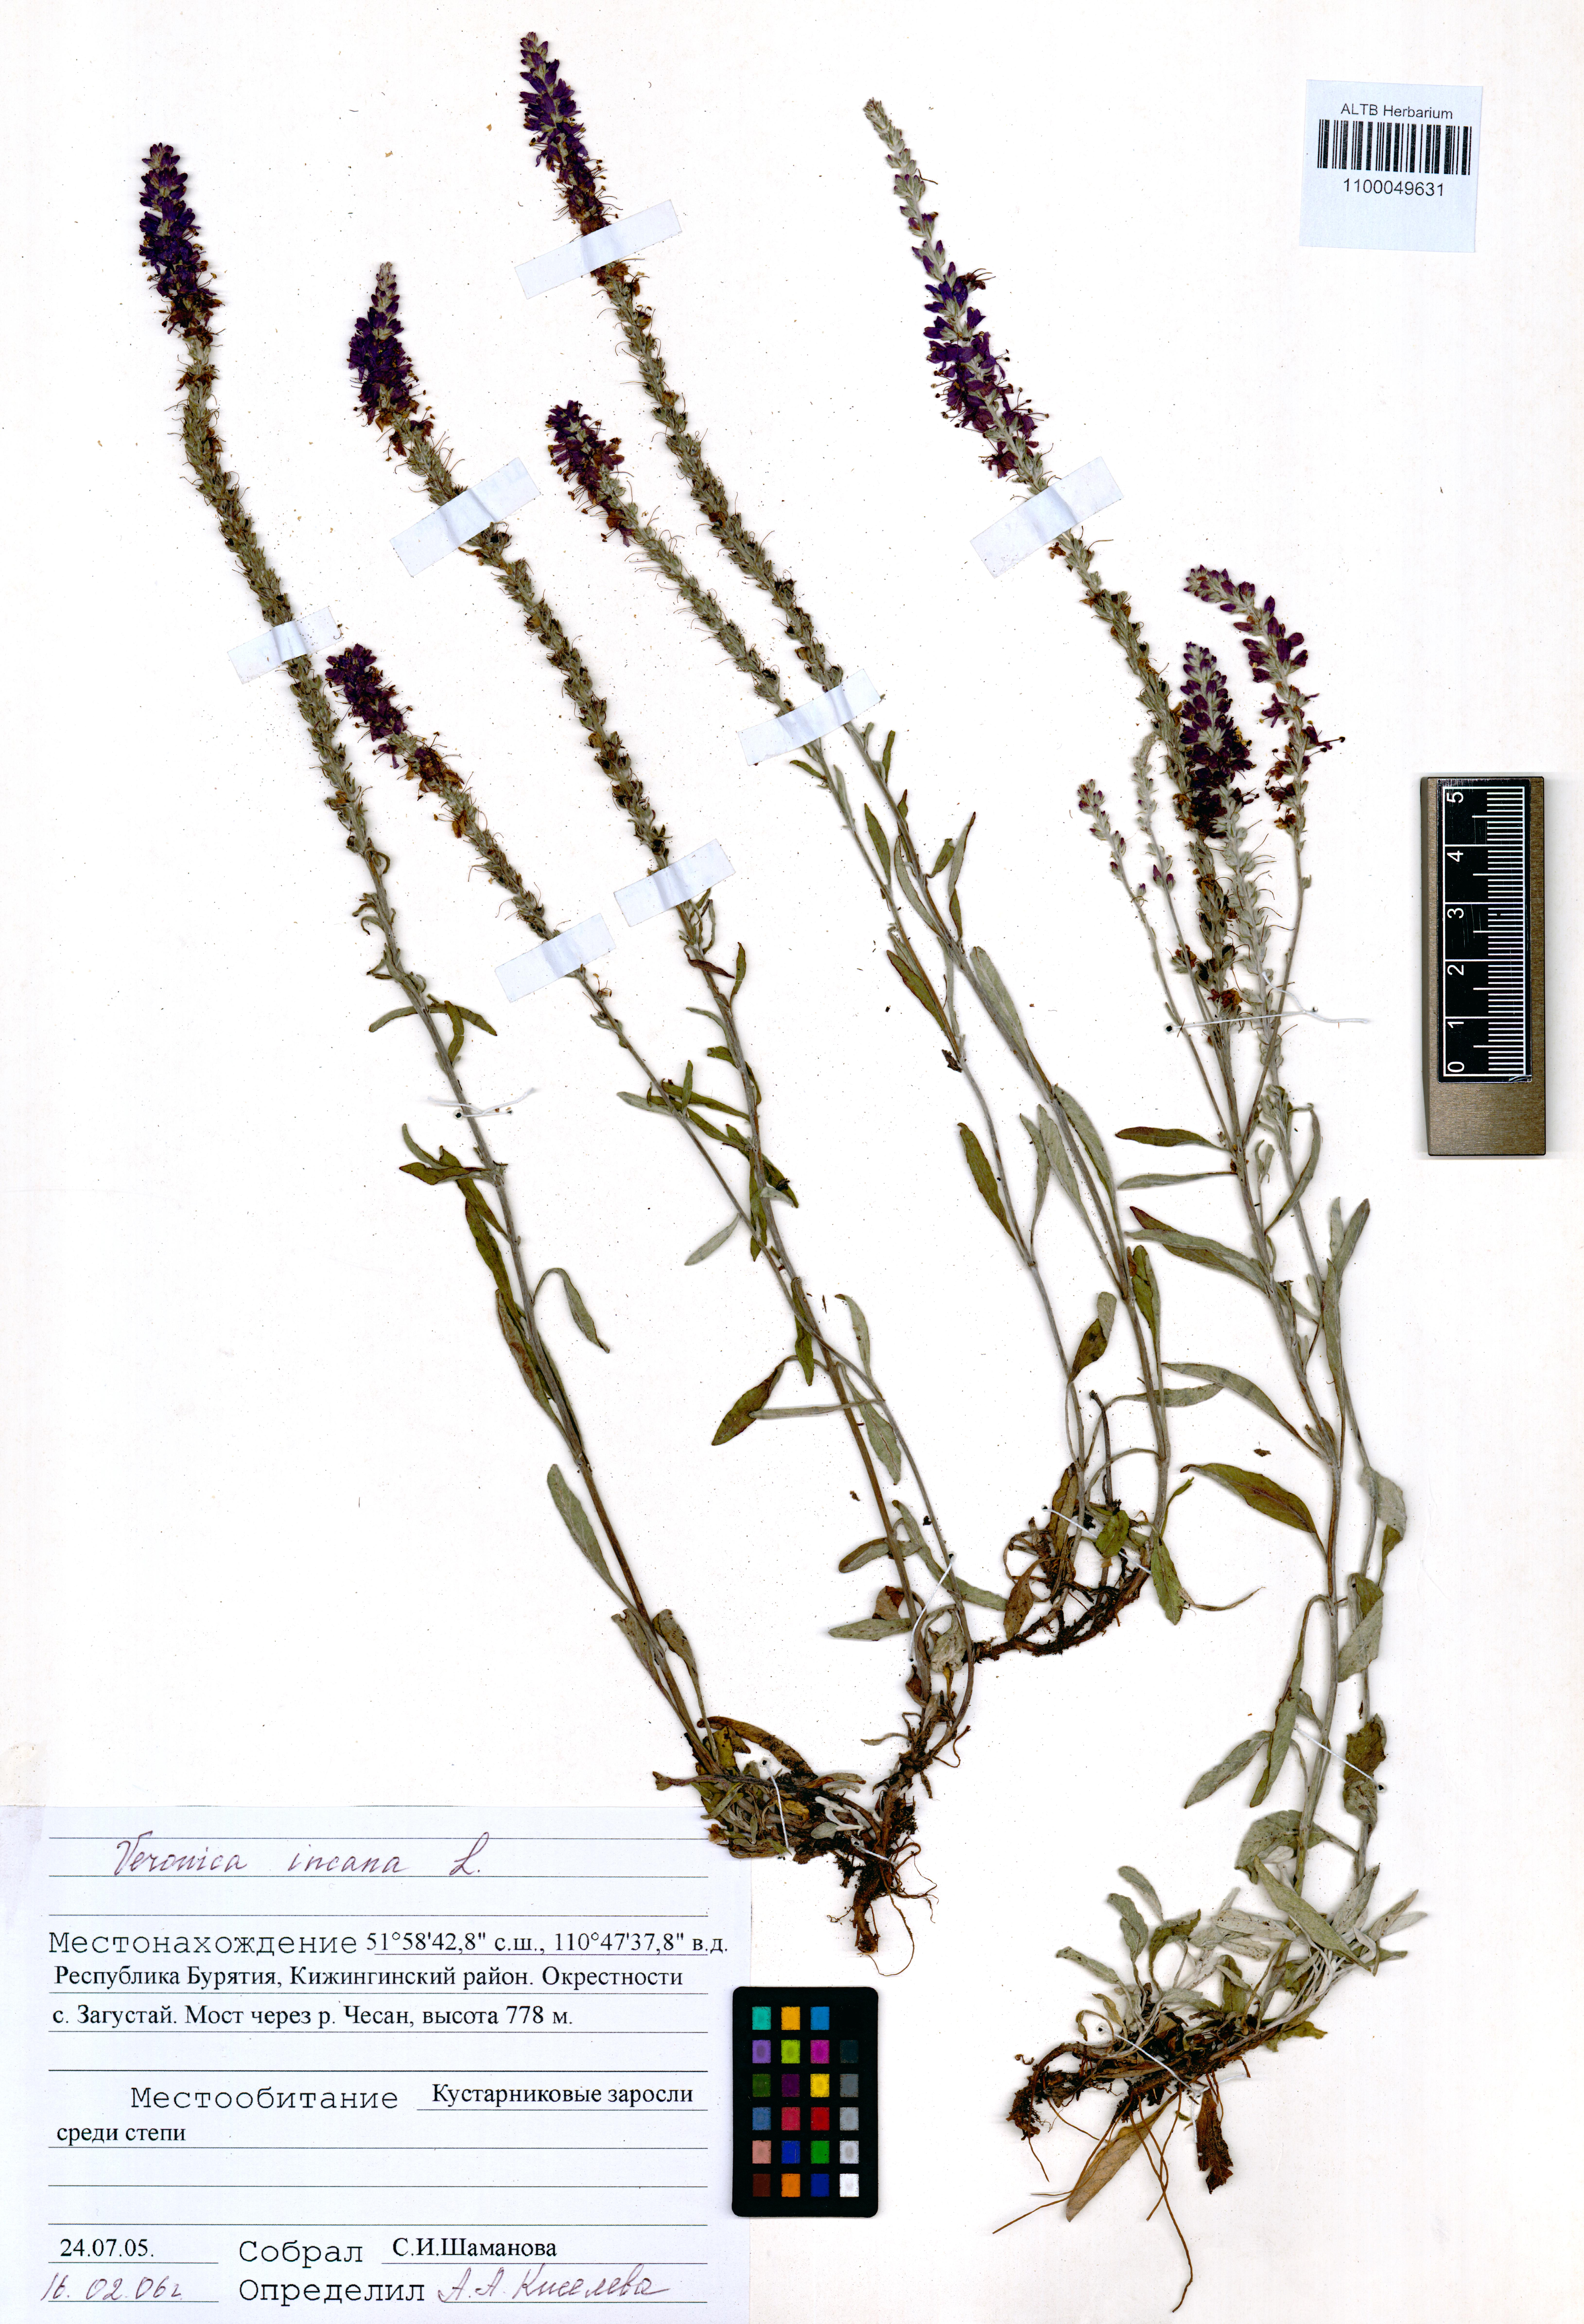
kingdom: Plantae
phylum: Tracheophyta
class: Magnoliopsida
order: Lamiales
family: Plantaginaceae
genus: Veronica
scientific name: Veronica incana
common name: Silver speedwell
